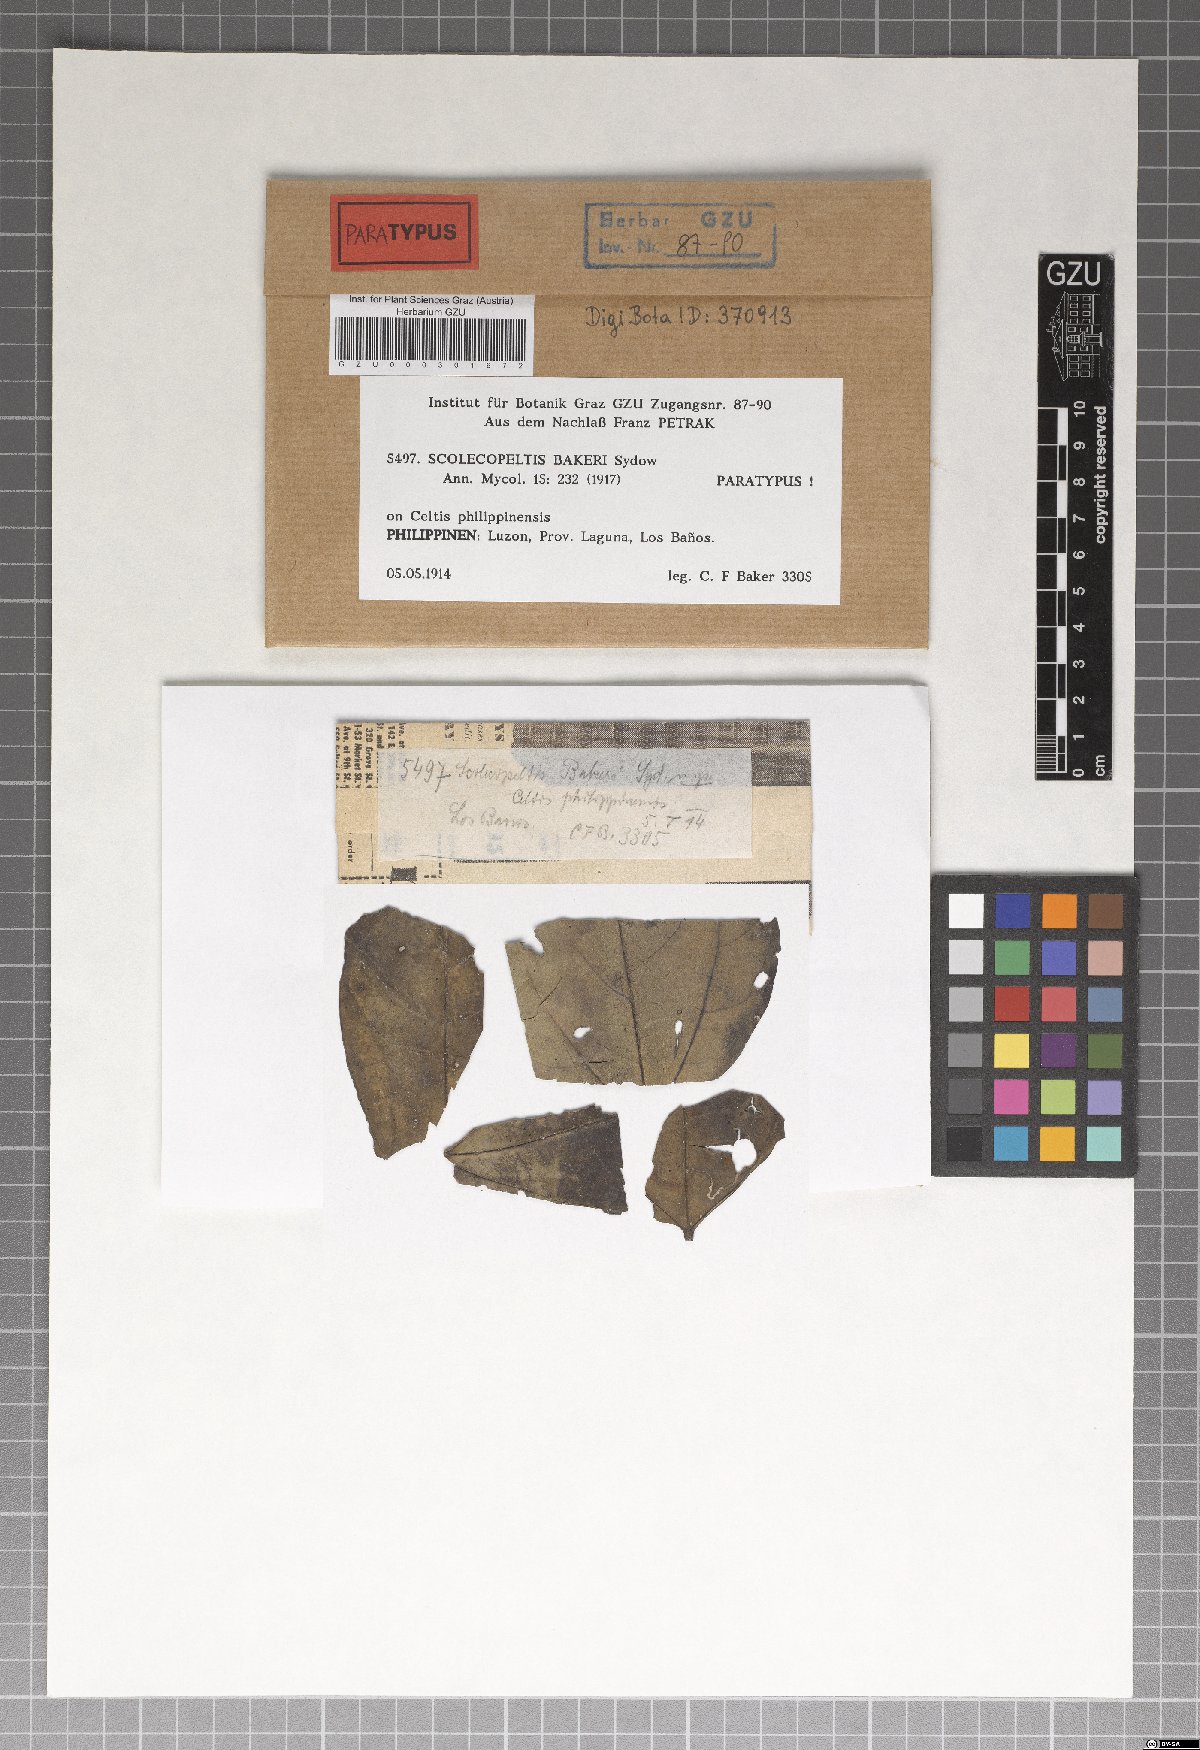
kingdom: Fungi
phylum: Ascomycota
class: Dothideomycetes
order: Microthyriales
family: Micropeltidaceae
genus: Scolecopeltis
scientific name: Scolecopeltis bakeri
